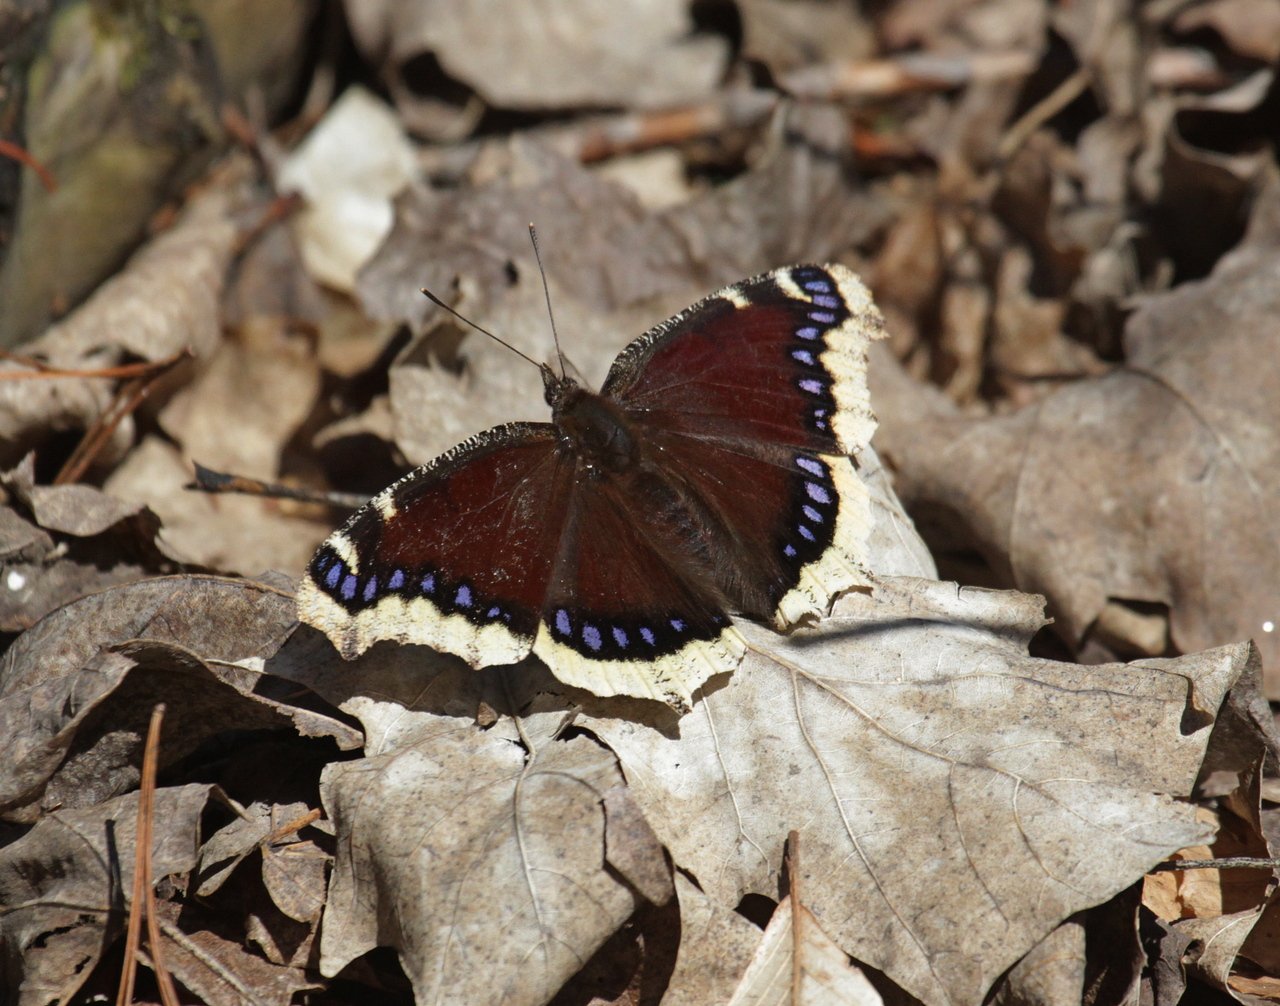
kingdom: Animalia
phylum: Arthropoda
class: Insecta
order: Lepidoptera
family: Nymphalidae
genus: Nymphalis
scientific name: Nymphalis antiopa
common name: Mourning Cloak
